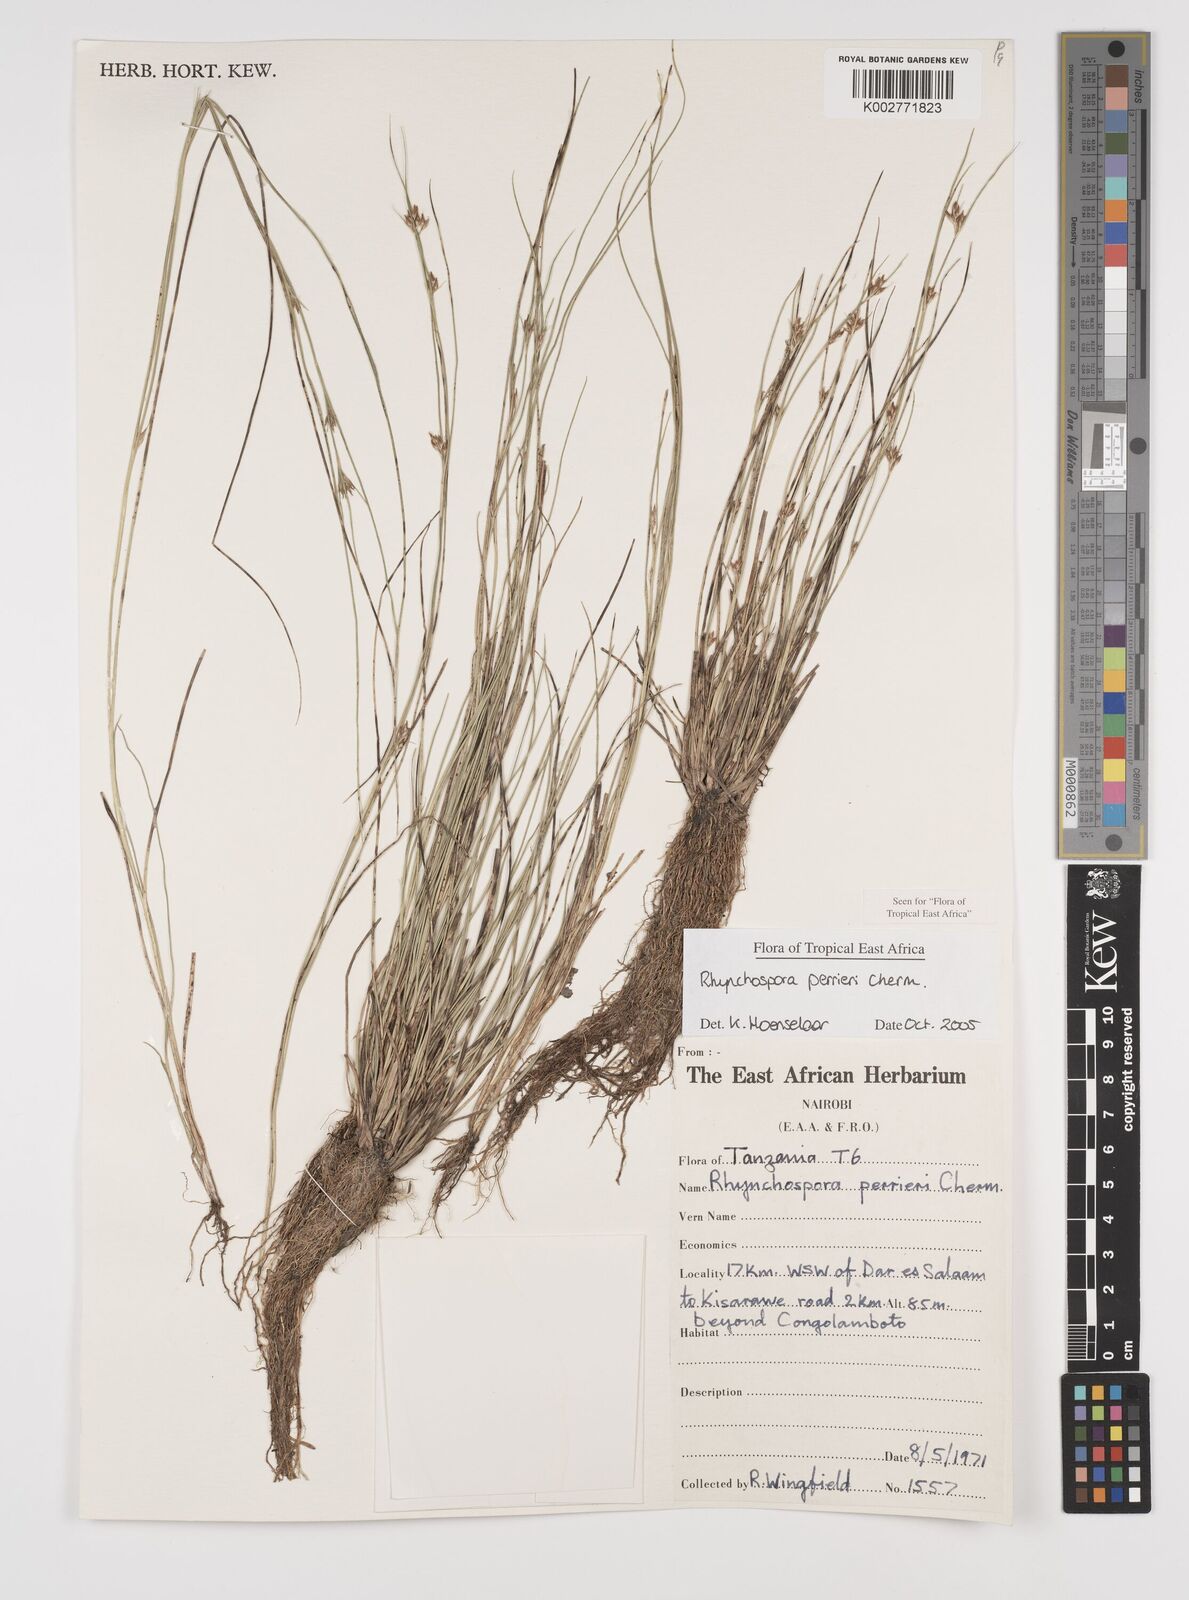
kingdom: Plantae
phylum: Tracheophyta
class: Liliopsida
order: Poales
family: Cyperaceae
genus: Rhynchospora
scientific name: Rhynchospora perrieri
